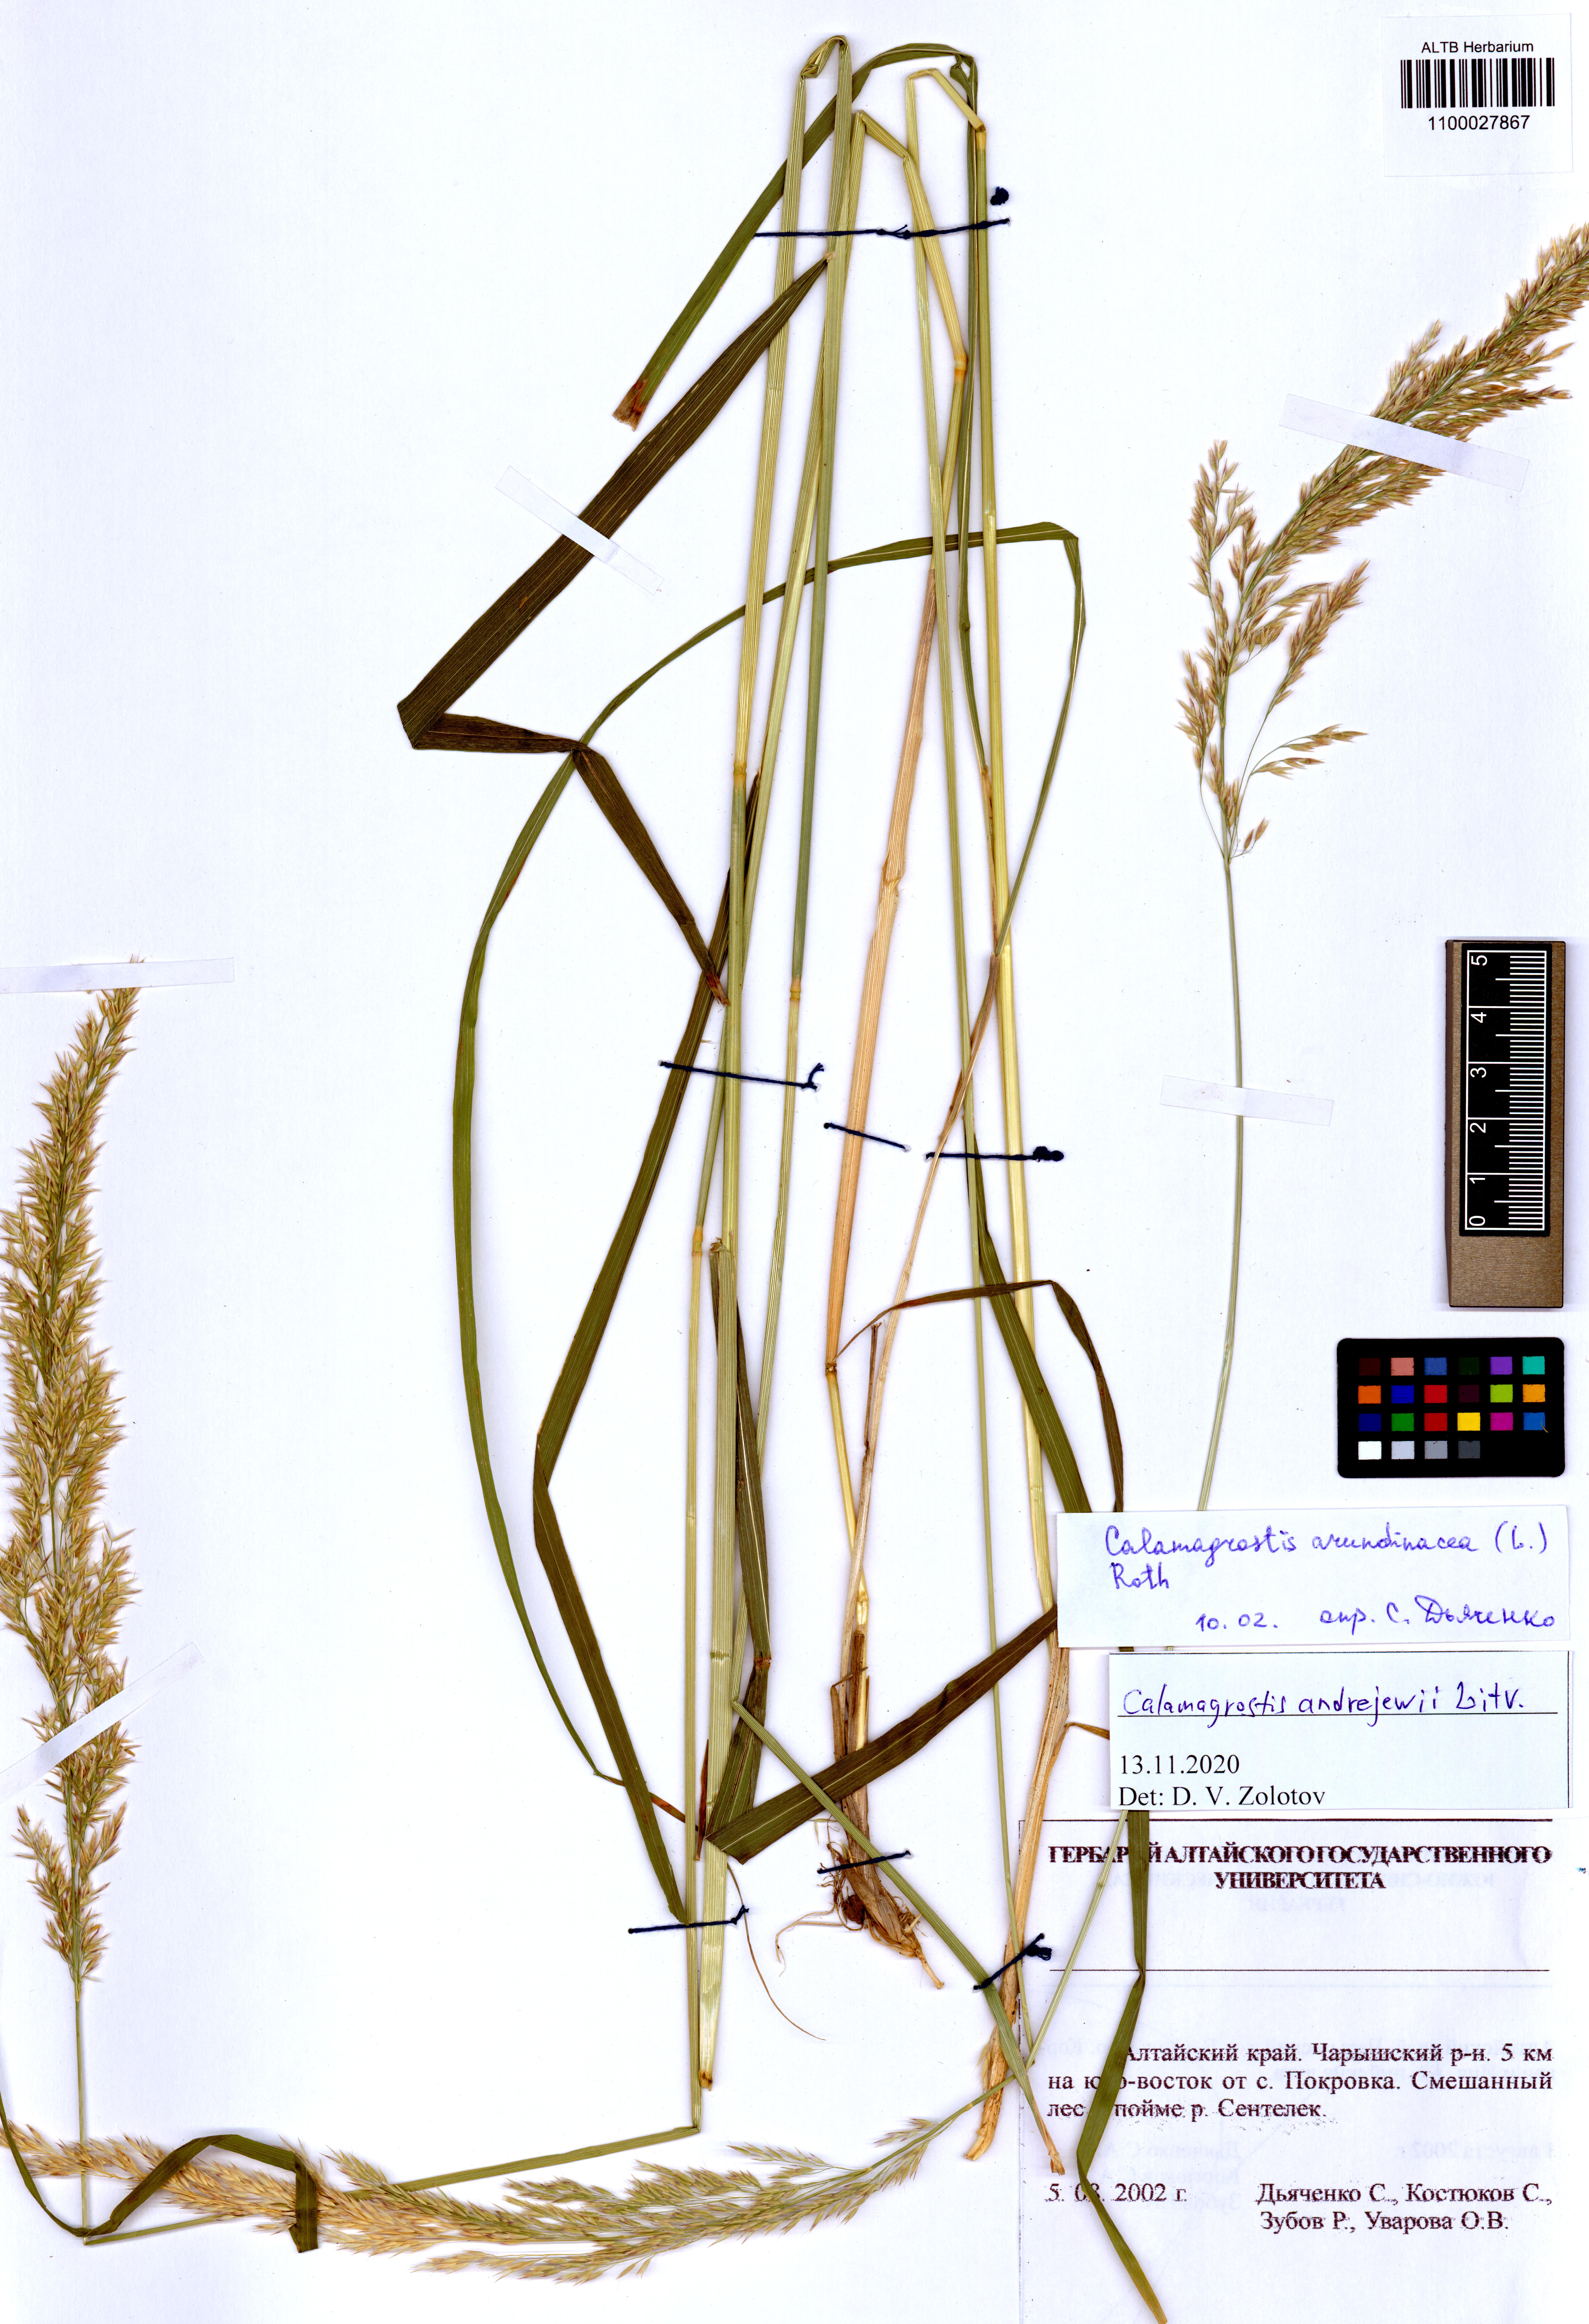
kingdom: Plantae
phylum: Tracheophyta
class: Liliopsida
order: Poales
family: Poaceae
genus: Calamagrostis
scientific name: Calamagrostis andrejewii
